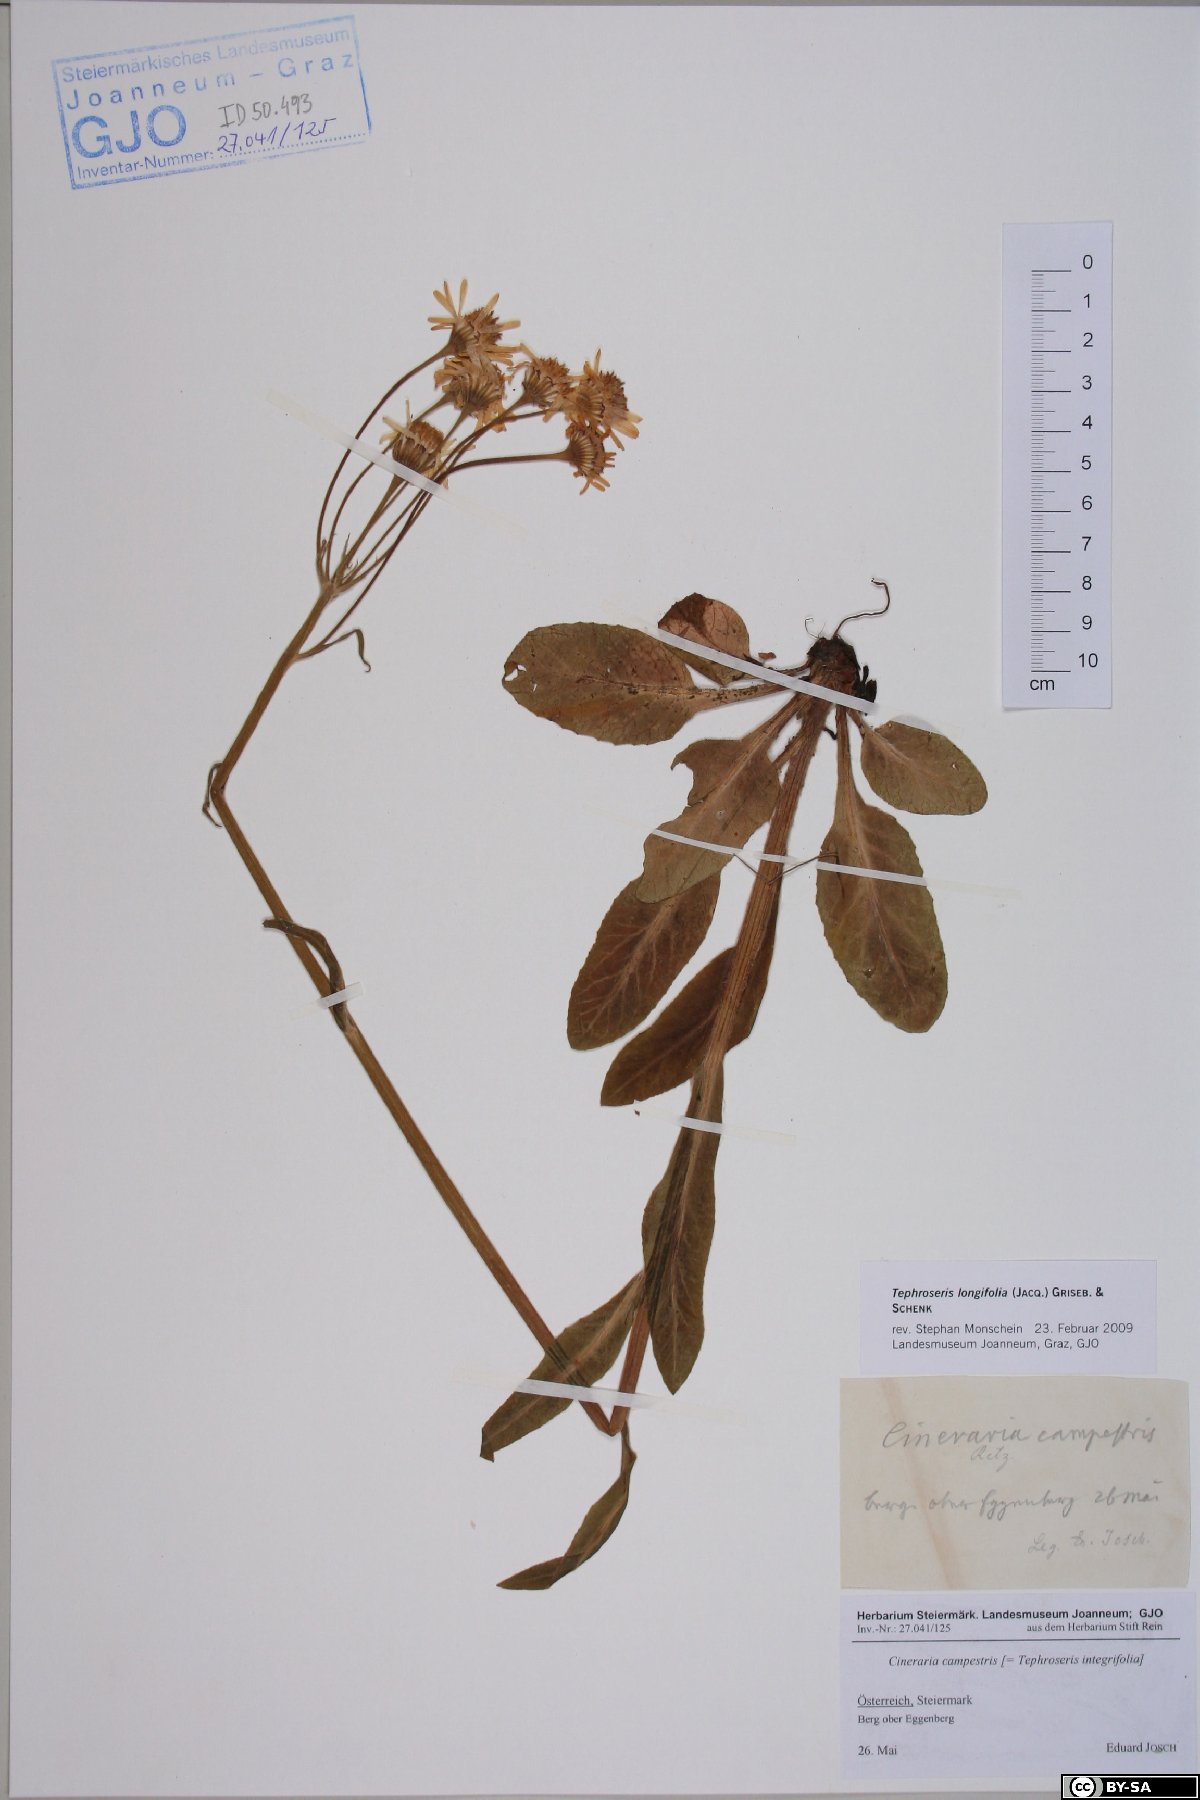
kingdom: Plantae
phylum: Tracheophyta
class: Magnoliopsida
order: Asterales
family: Asteraceae
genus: Tephroseris
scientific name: Tephroseris longifolia
